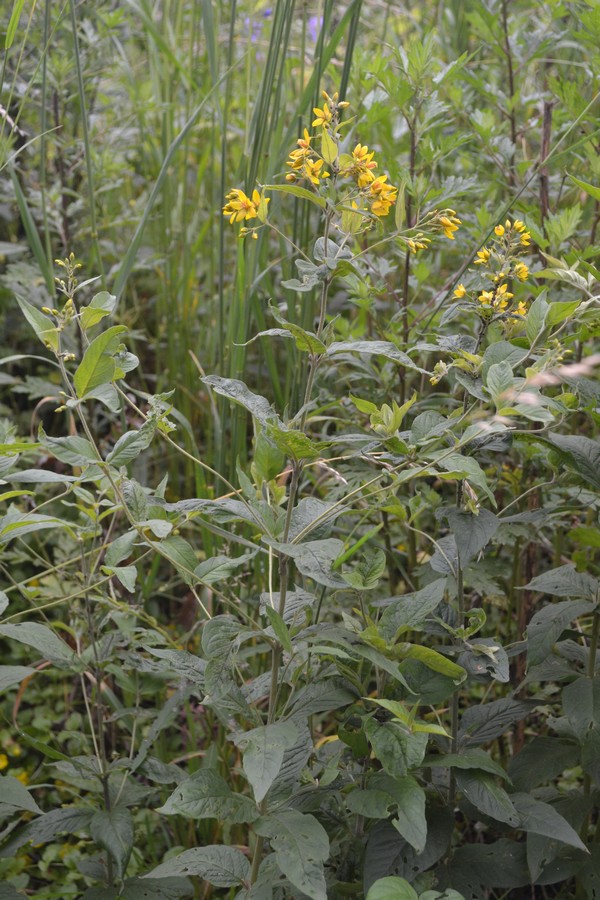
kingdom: Plantae
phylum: Tracheophyta
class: Magnoliopsida
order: Ericales
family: Primulaceae
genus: Lysimachia
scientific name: Lysimachia vulgaris
